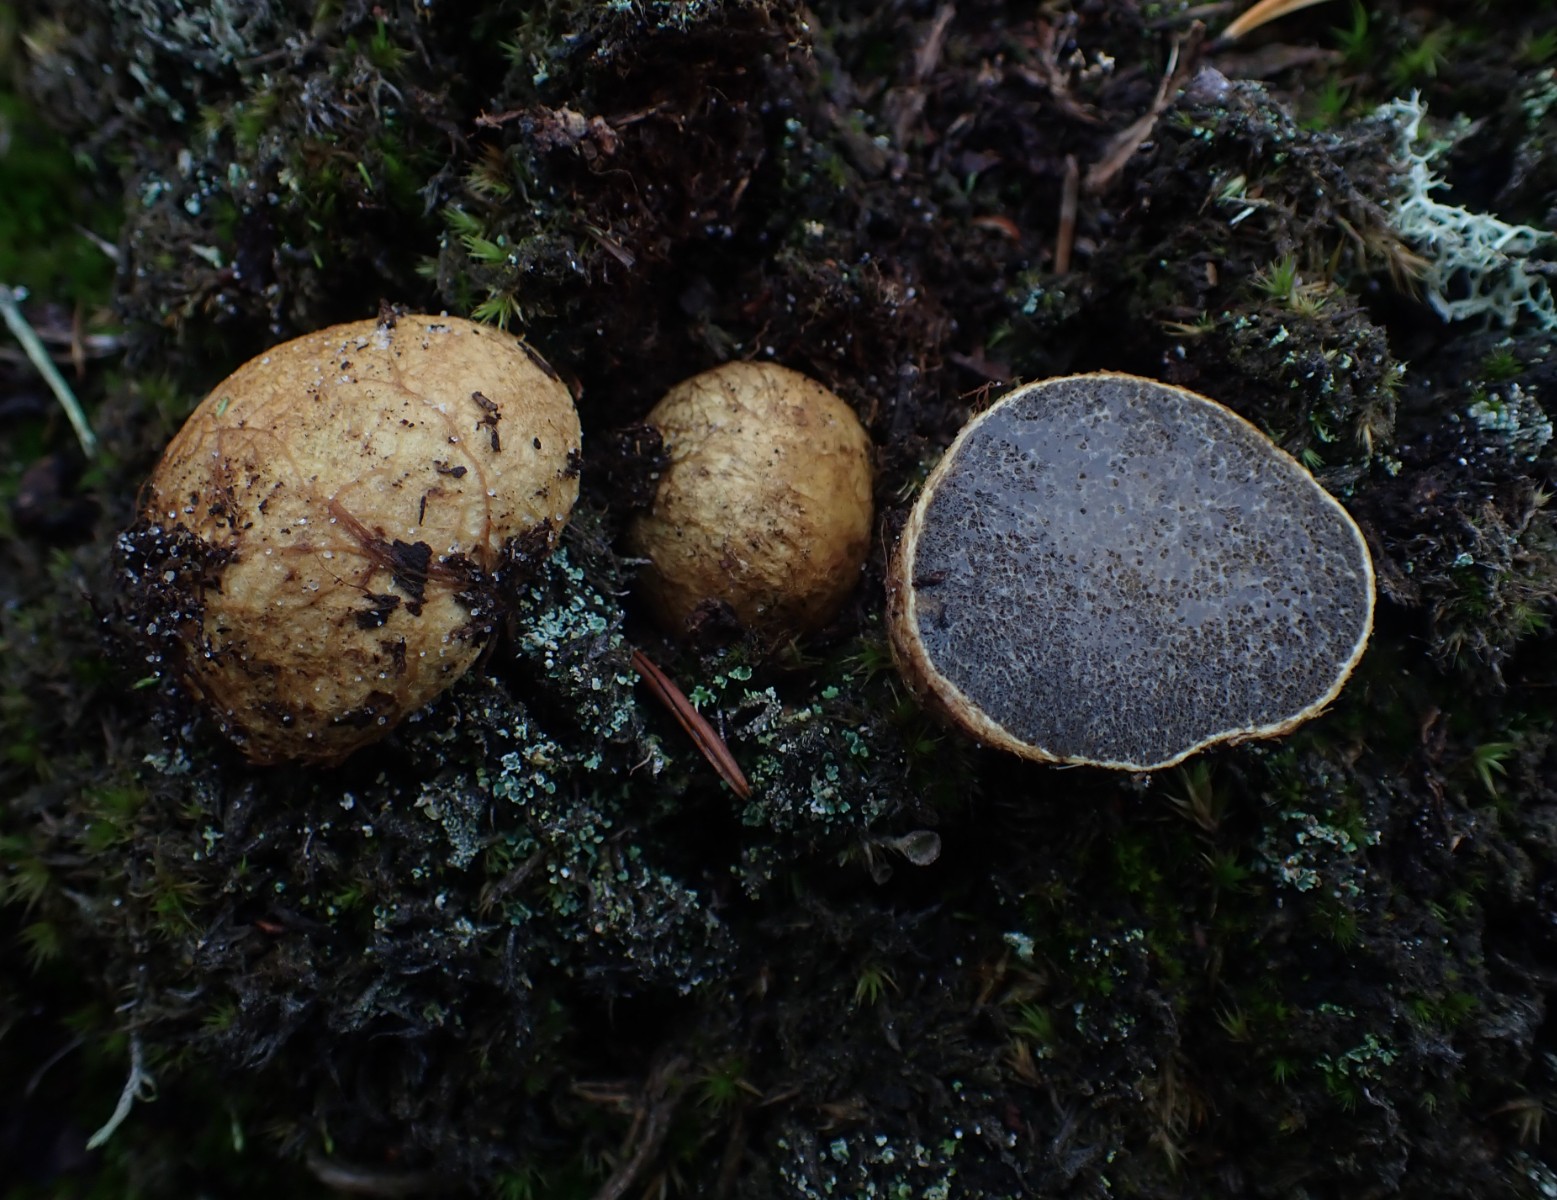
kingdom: Fungi
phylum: Basidiomycota
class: Agaricomycetes
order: Boletales
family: Rhizopogonaceae
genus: Rhizopogon
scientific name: Rhizopogon obtextus
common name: gul skægtrøffel
